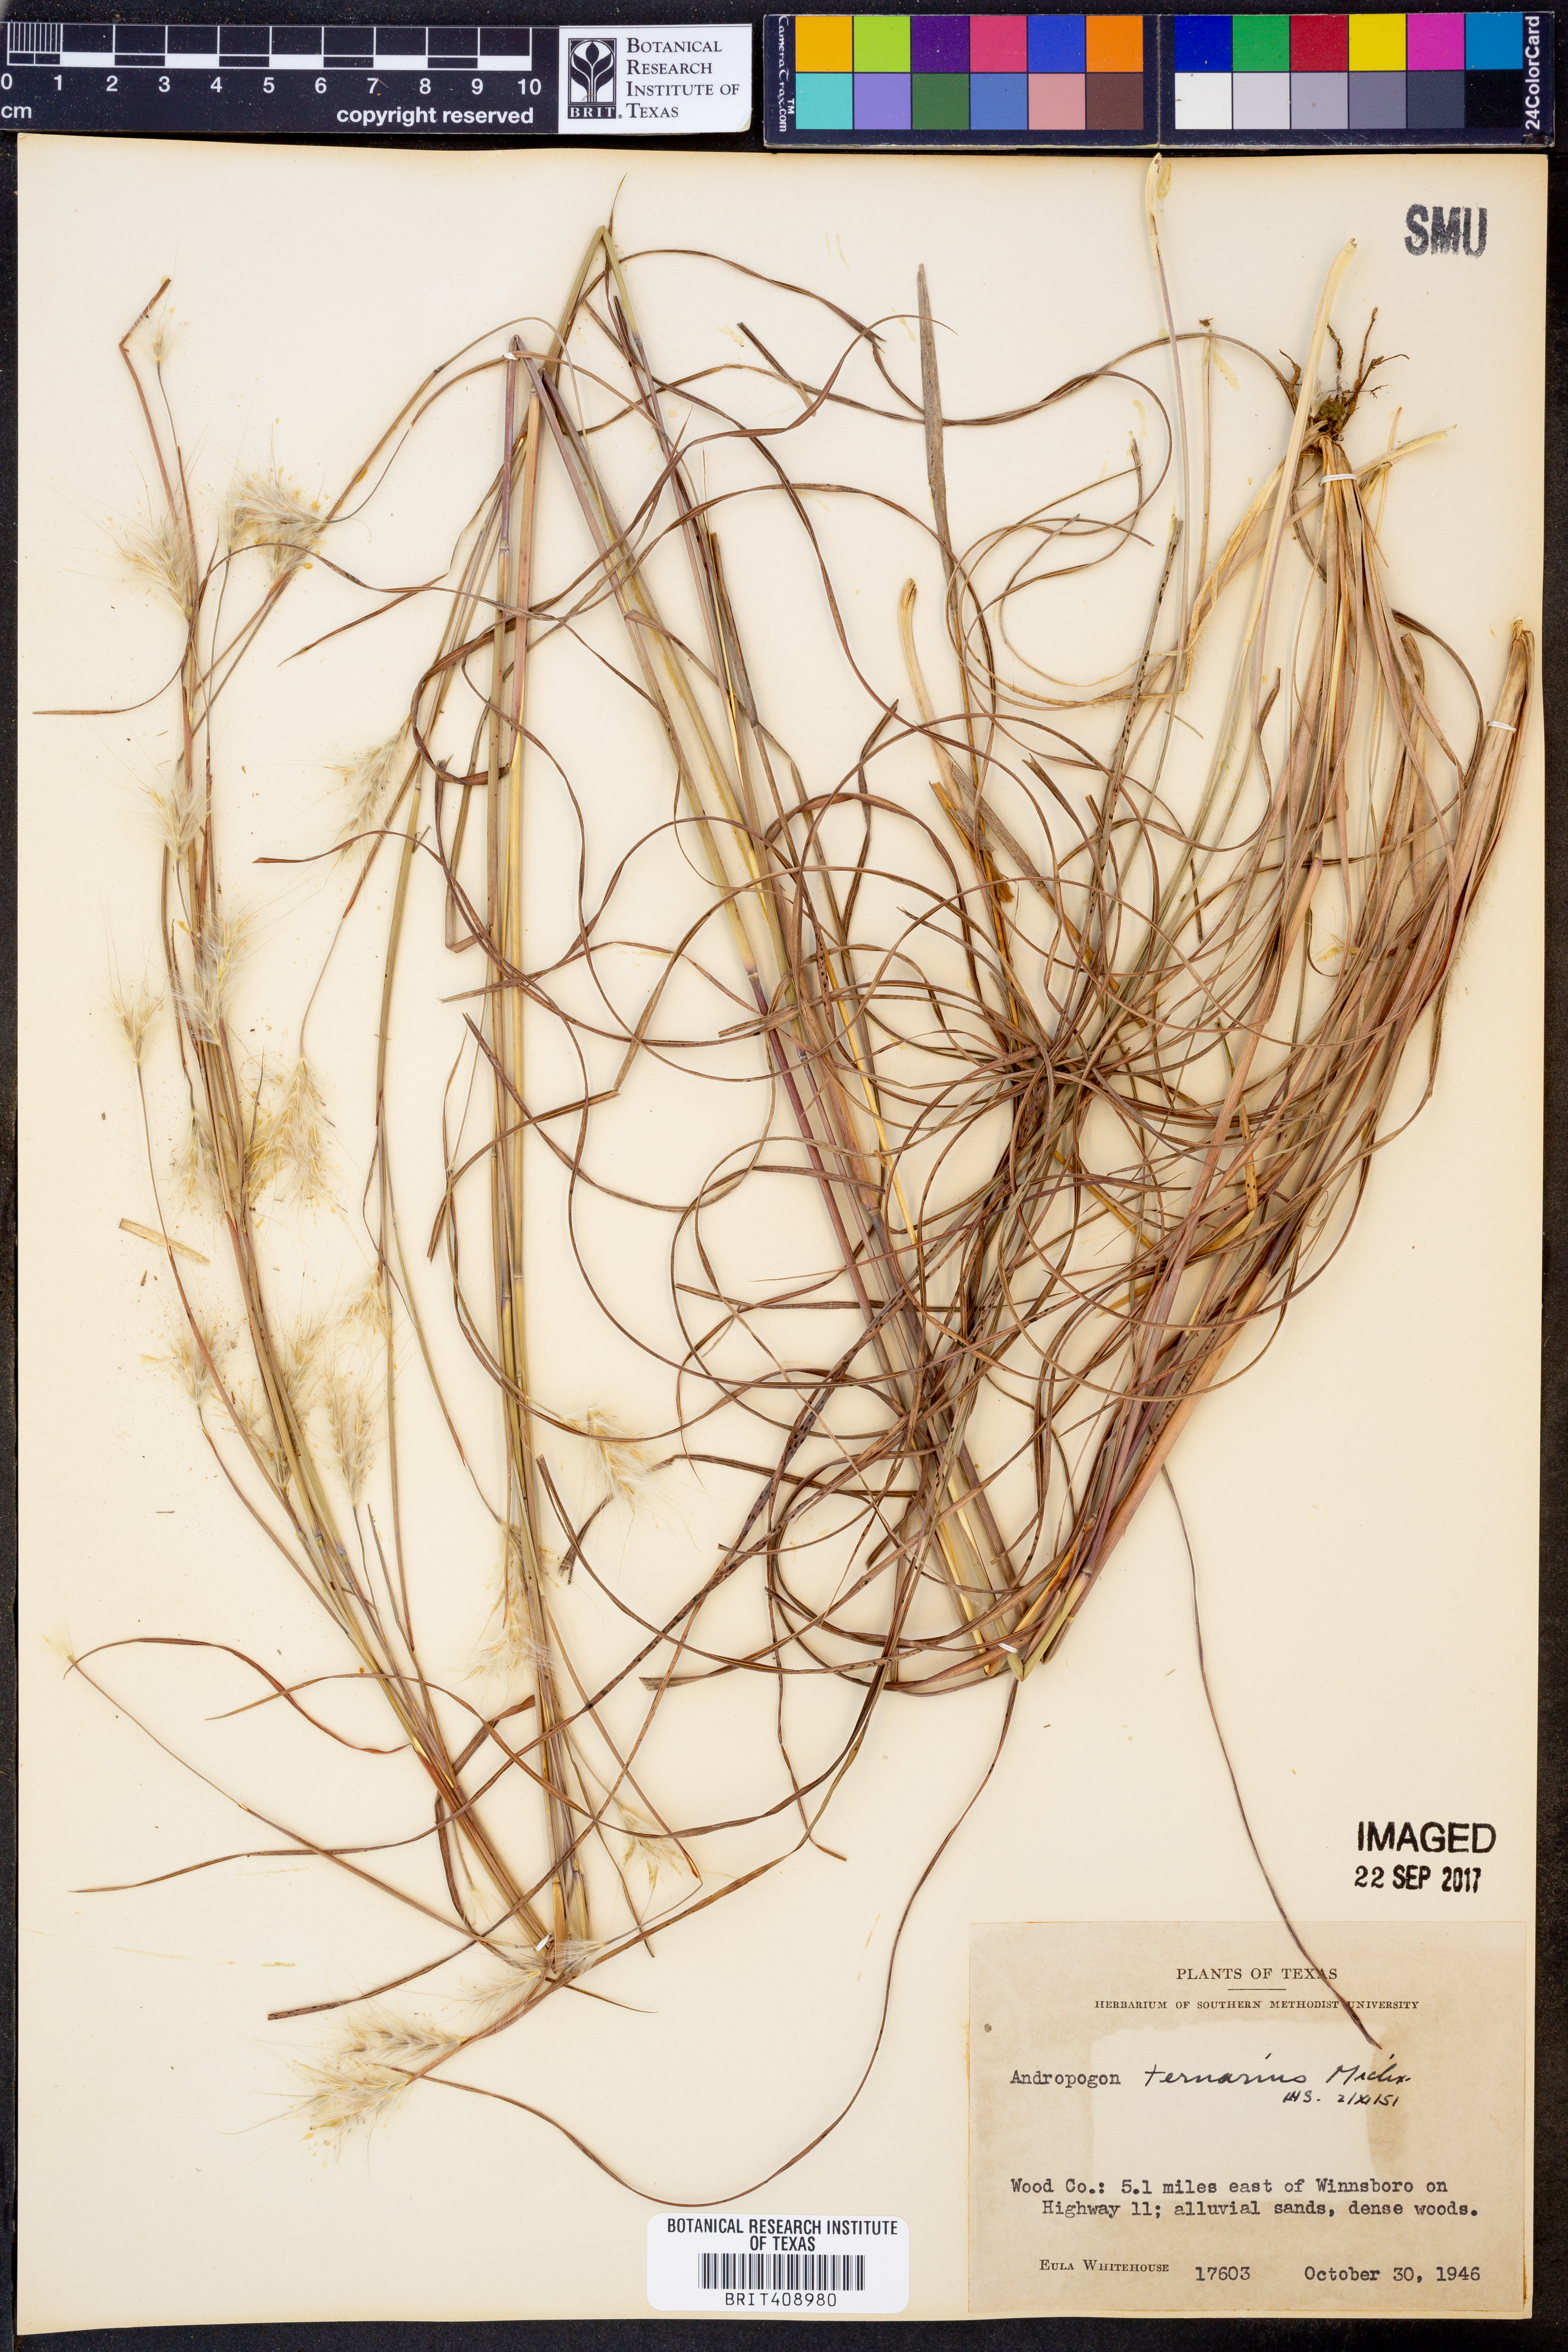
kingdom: Plantae
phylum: Tracheophyta
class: Liliopsida
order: Poales
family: Poaceae
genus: Andropogon
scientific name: Andropogon ternarius
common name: Split bluestem
